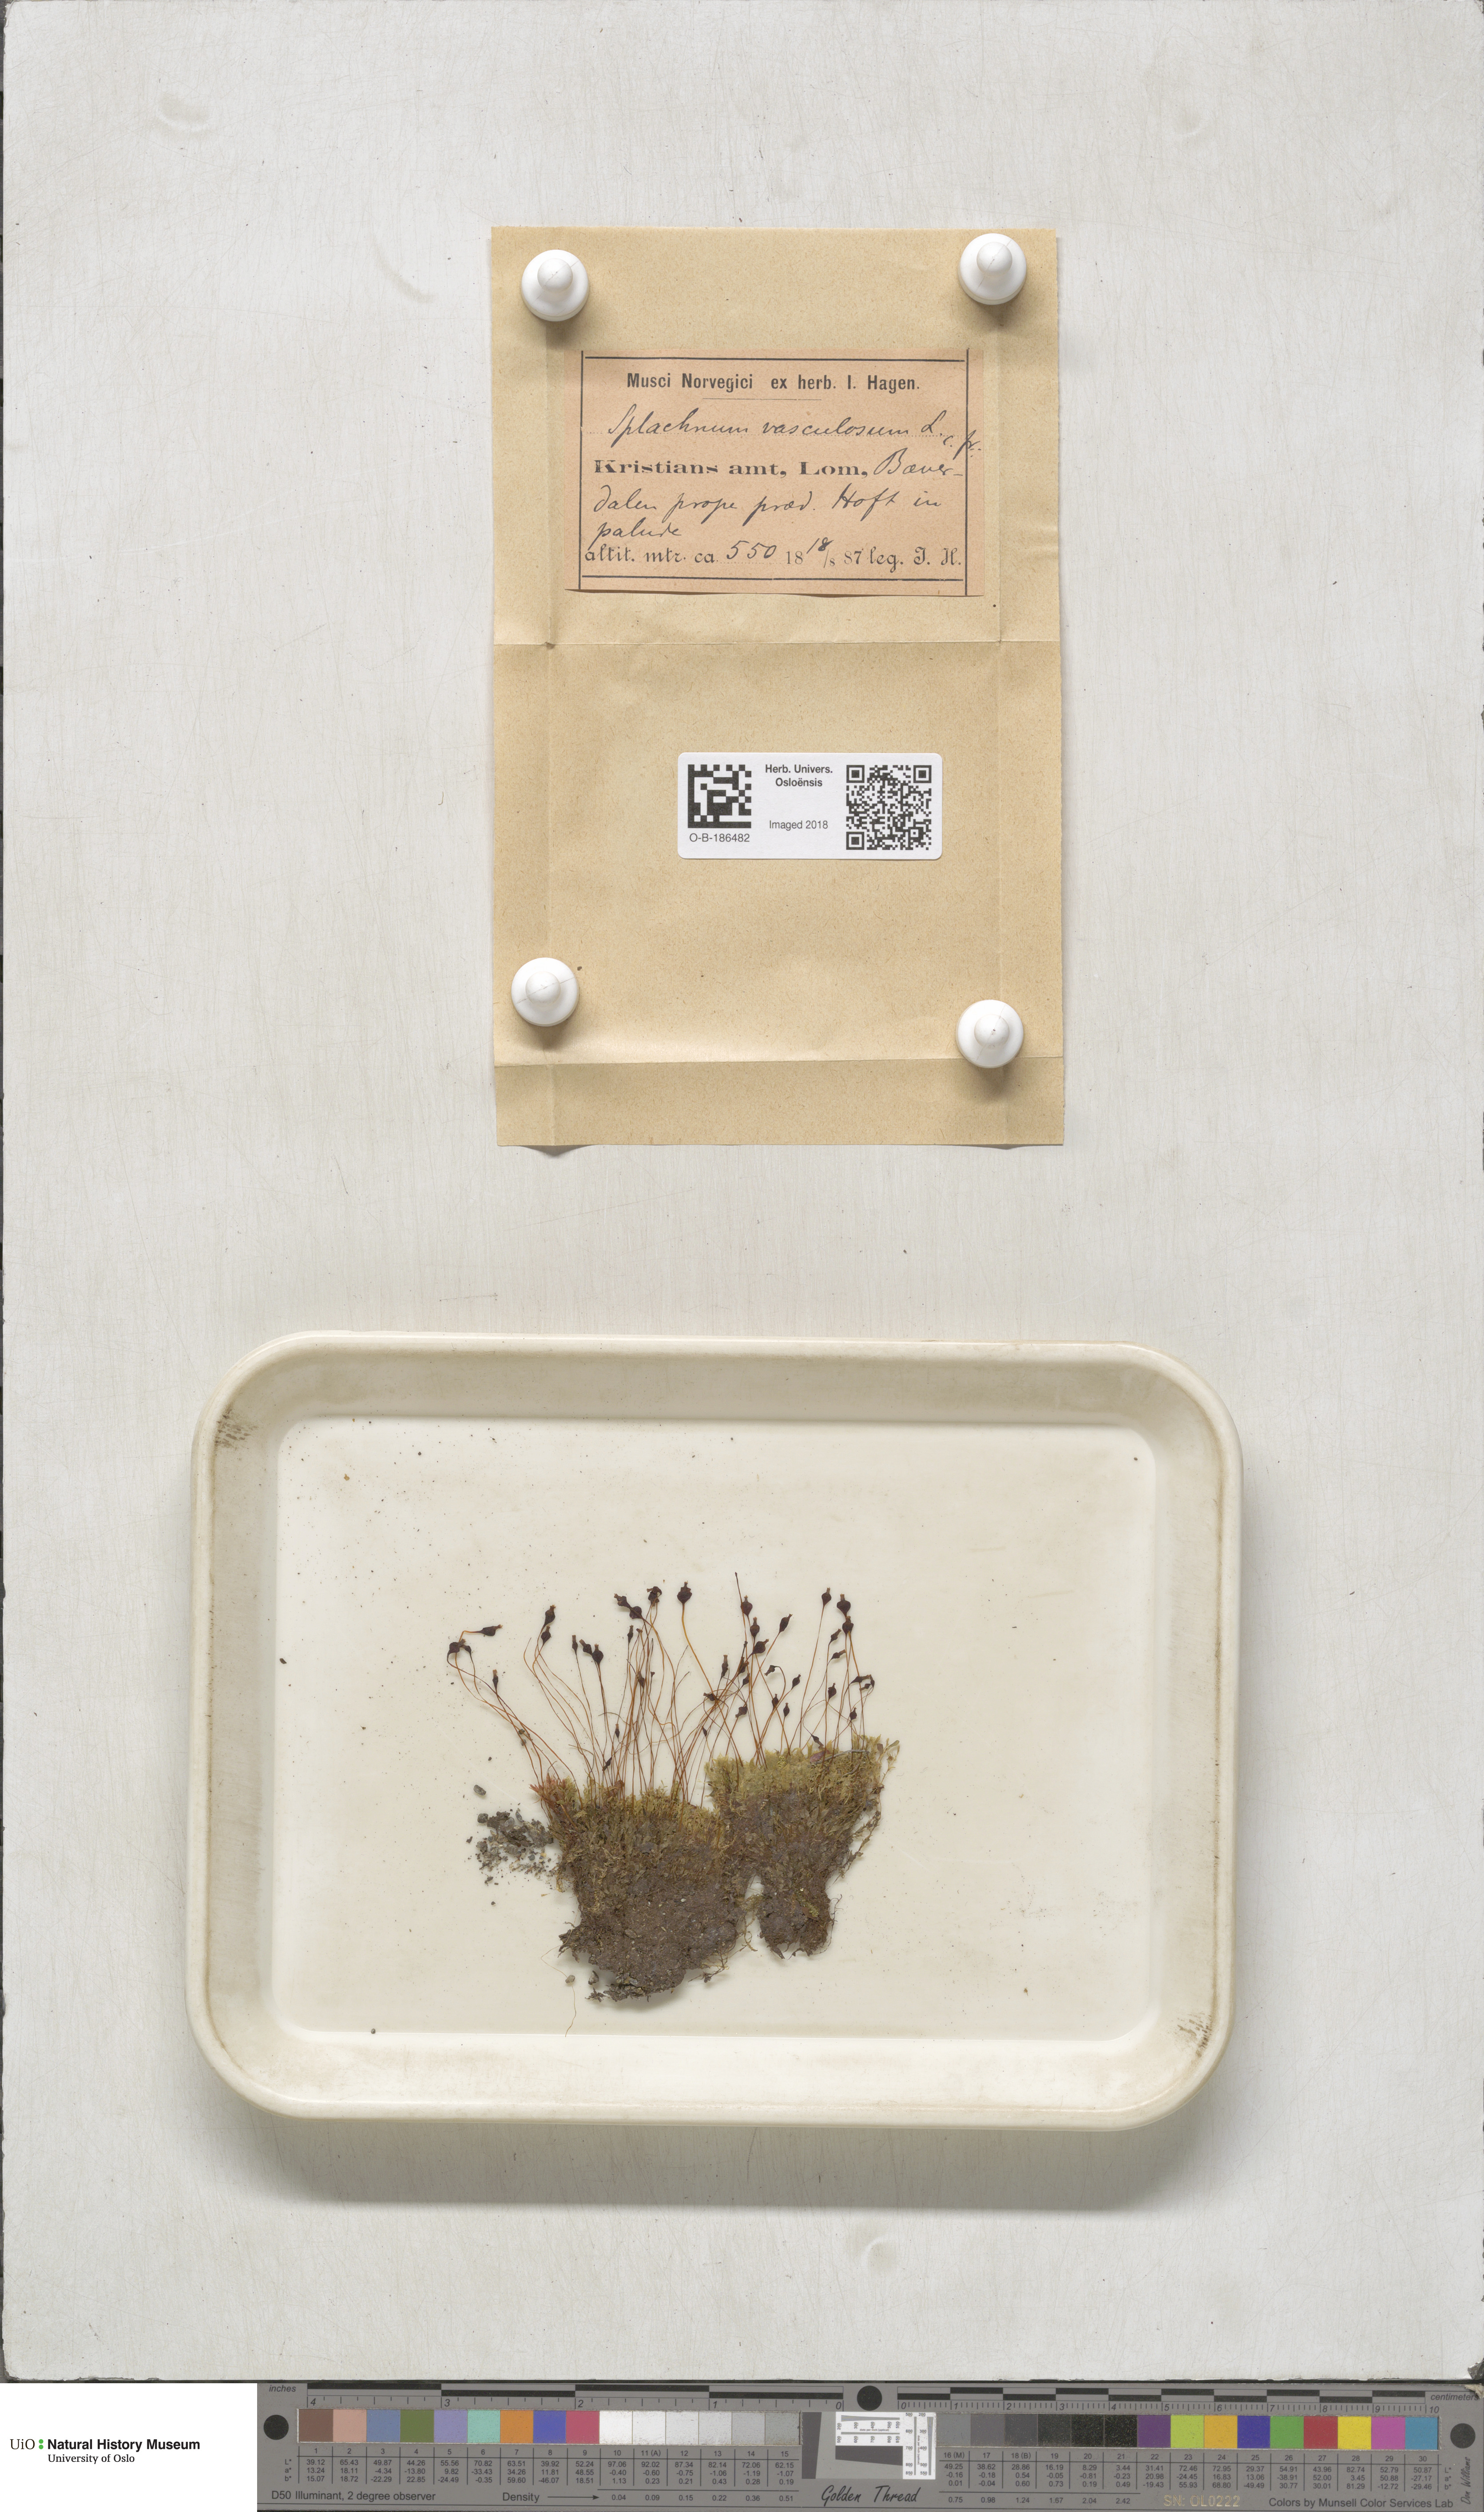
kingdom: Plantae
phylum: Bryophyta
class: Bryopsida
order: Splachnales
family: Splachnaceae
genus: Splachnum
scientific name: Splachnum vasculosum
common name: Rugged dung moss
